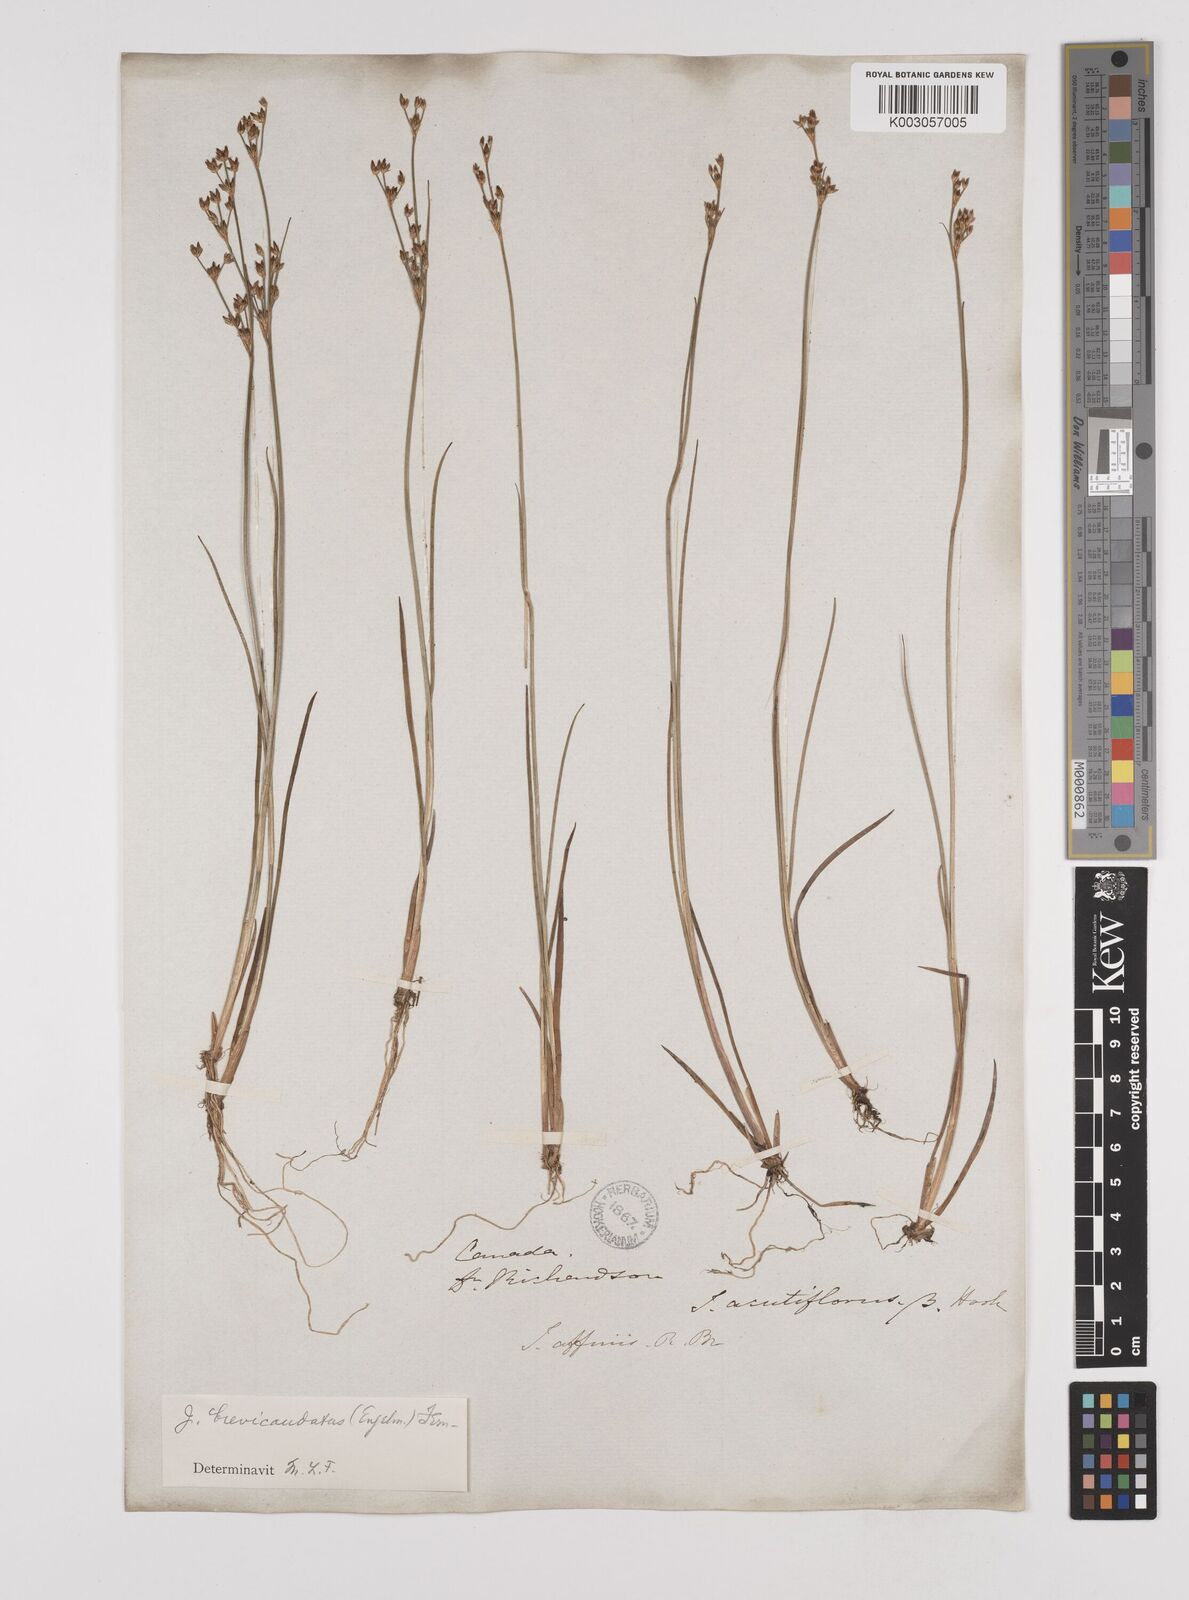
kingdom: Plantae
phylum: Tracheophyta
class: Liliopsida
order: Poales
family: Juncaceae
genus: Juncus
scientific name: Juncus brevicaudatus
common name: Narrow-panicle rush
